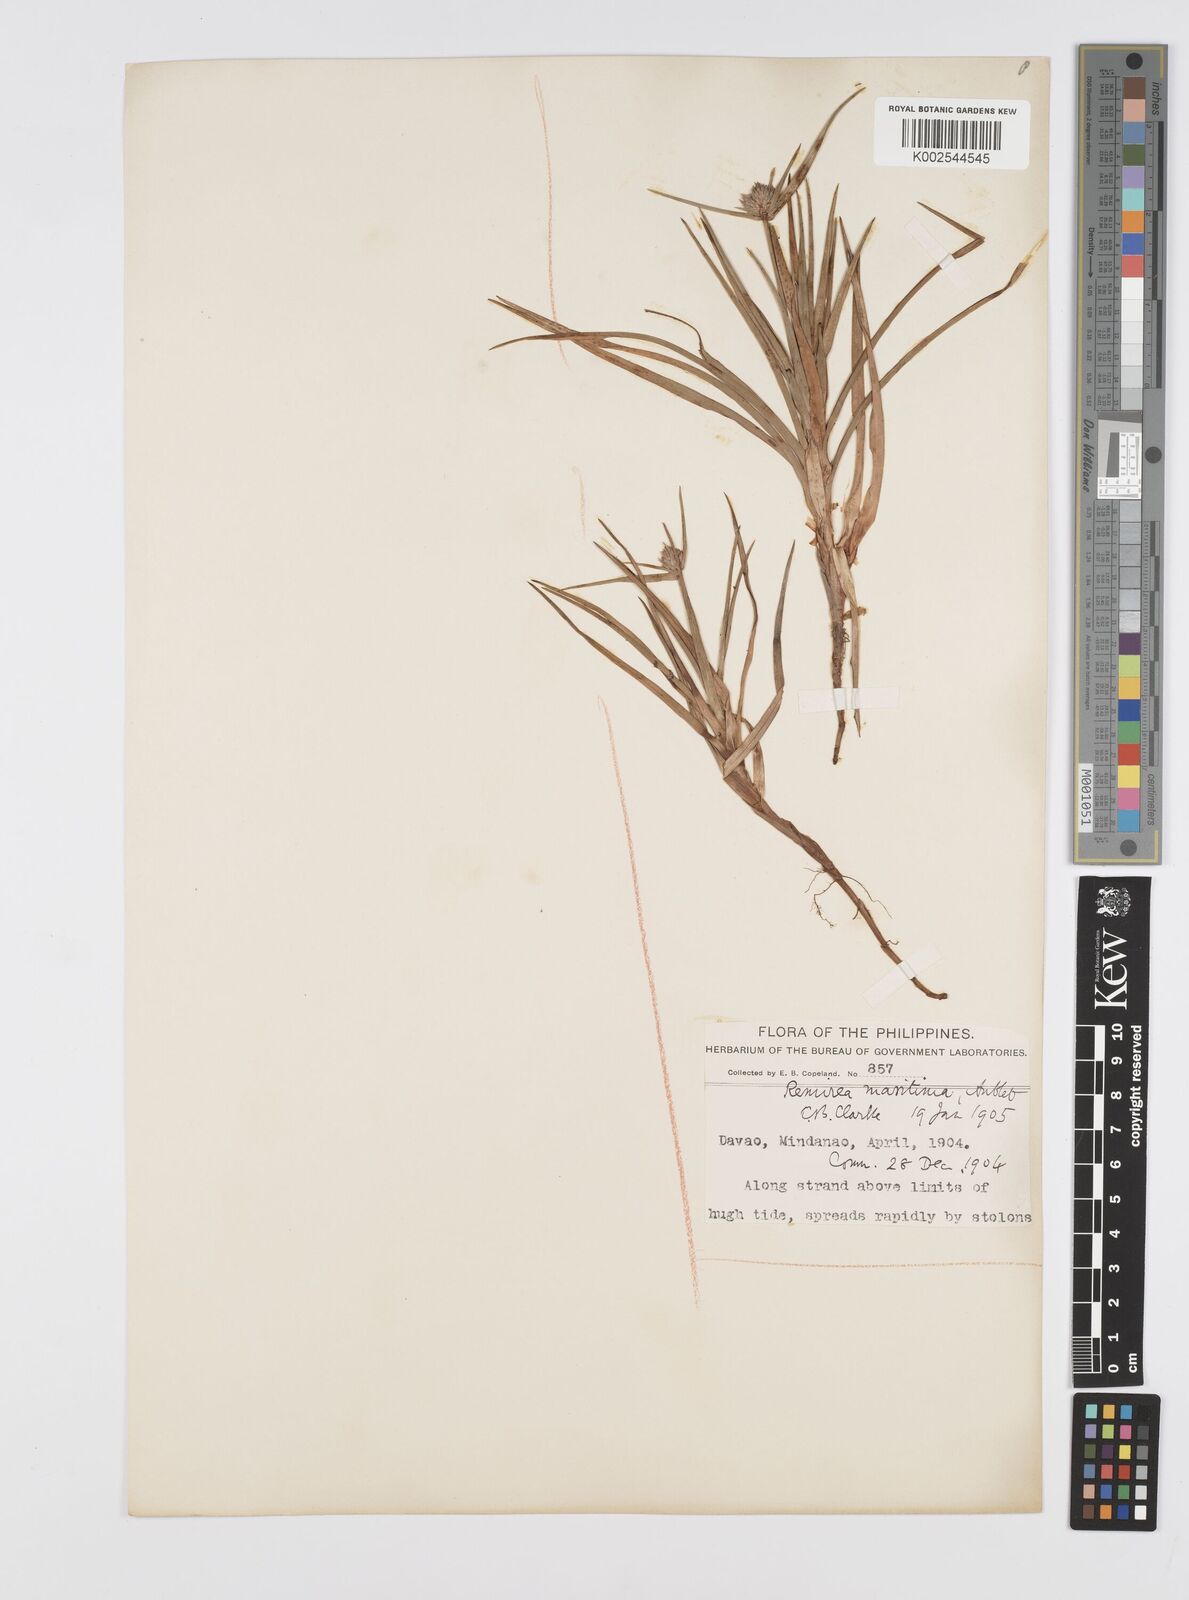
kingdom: Plantae
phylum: Tracheophyta
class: Liliopsida
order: Poales
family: Cyperaceae
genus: Cyperus
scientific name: Cyperus
